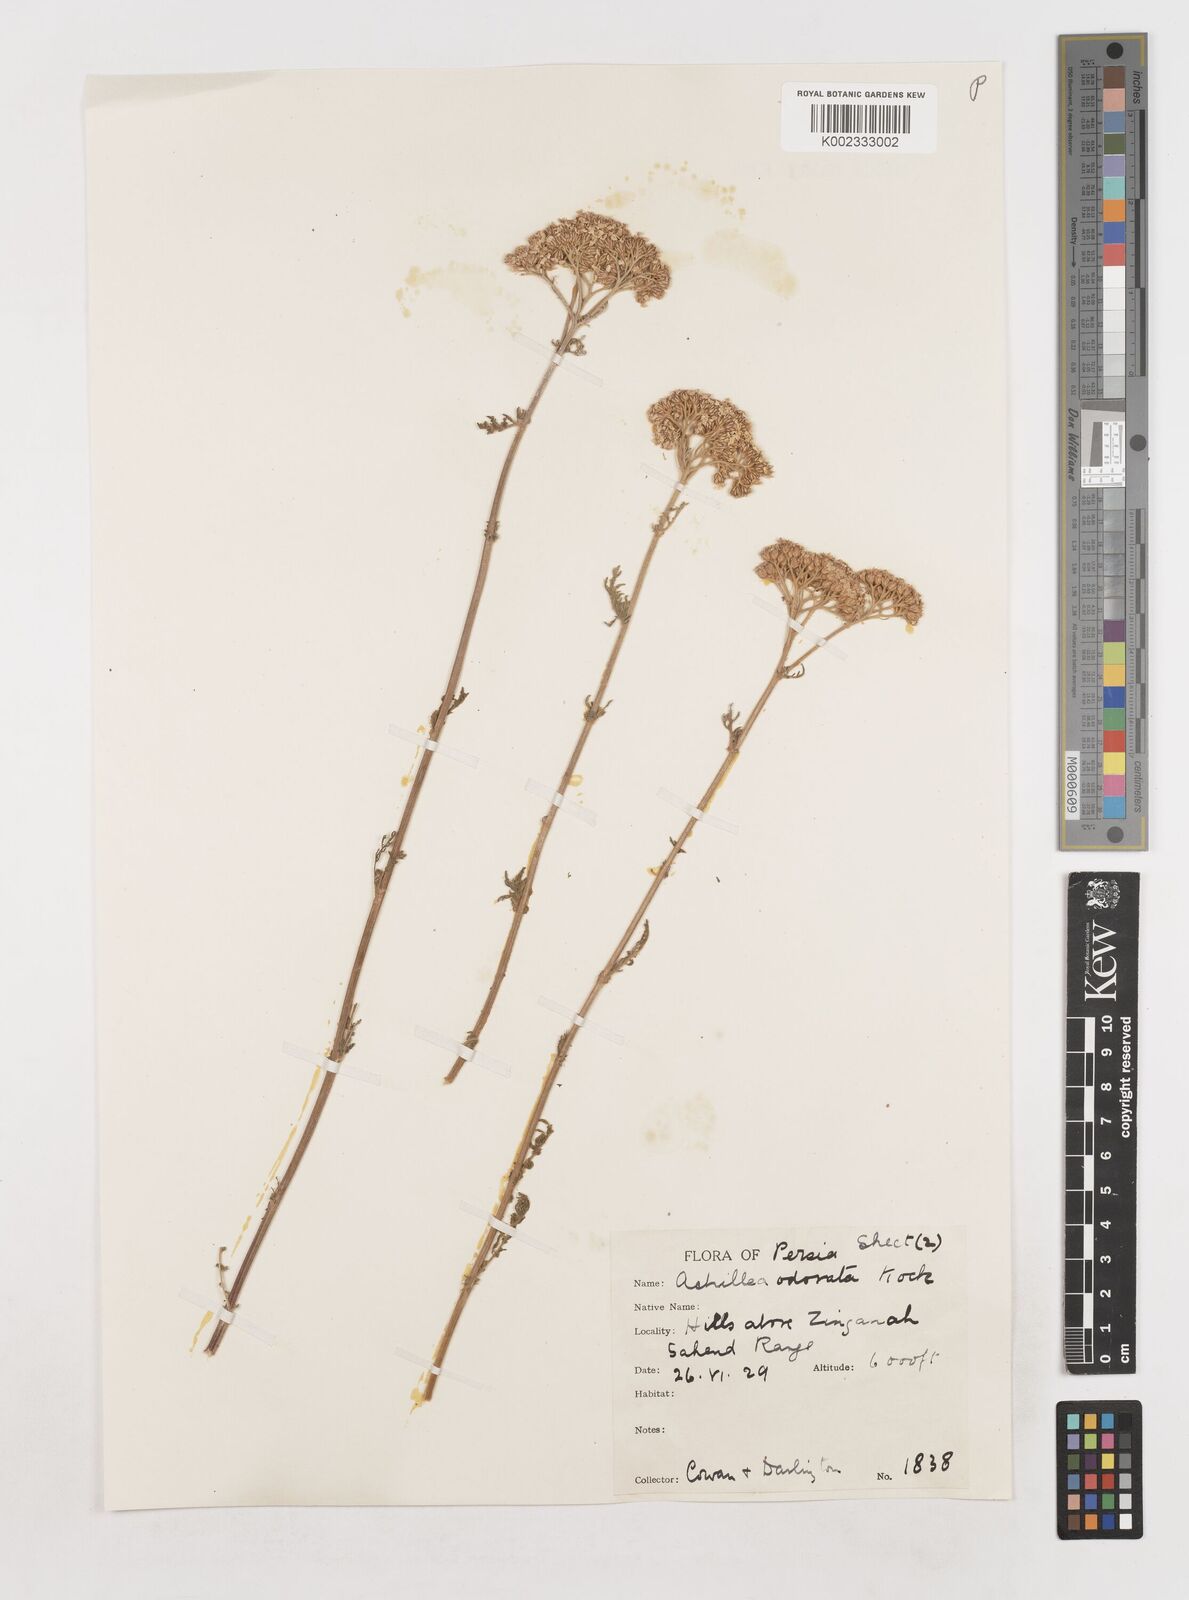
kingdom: Plantae
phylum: Tracheophyta
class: Magnoliopsida
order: Asterales
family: Asteraceae
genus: Achillea
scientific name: Achillea
